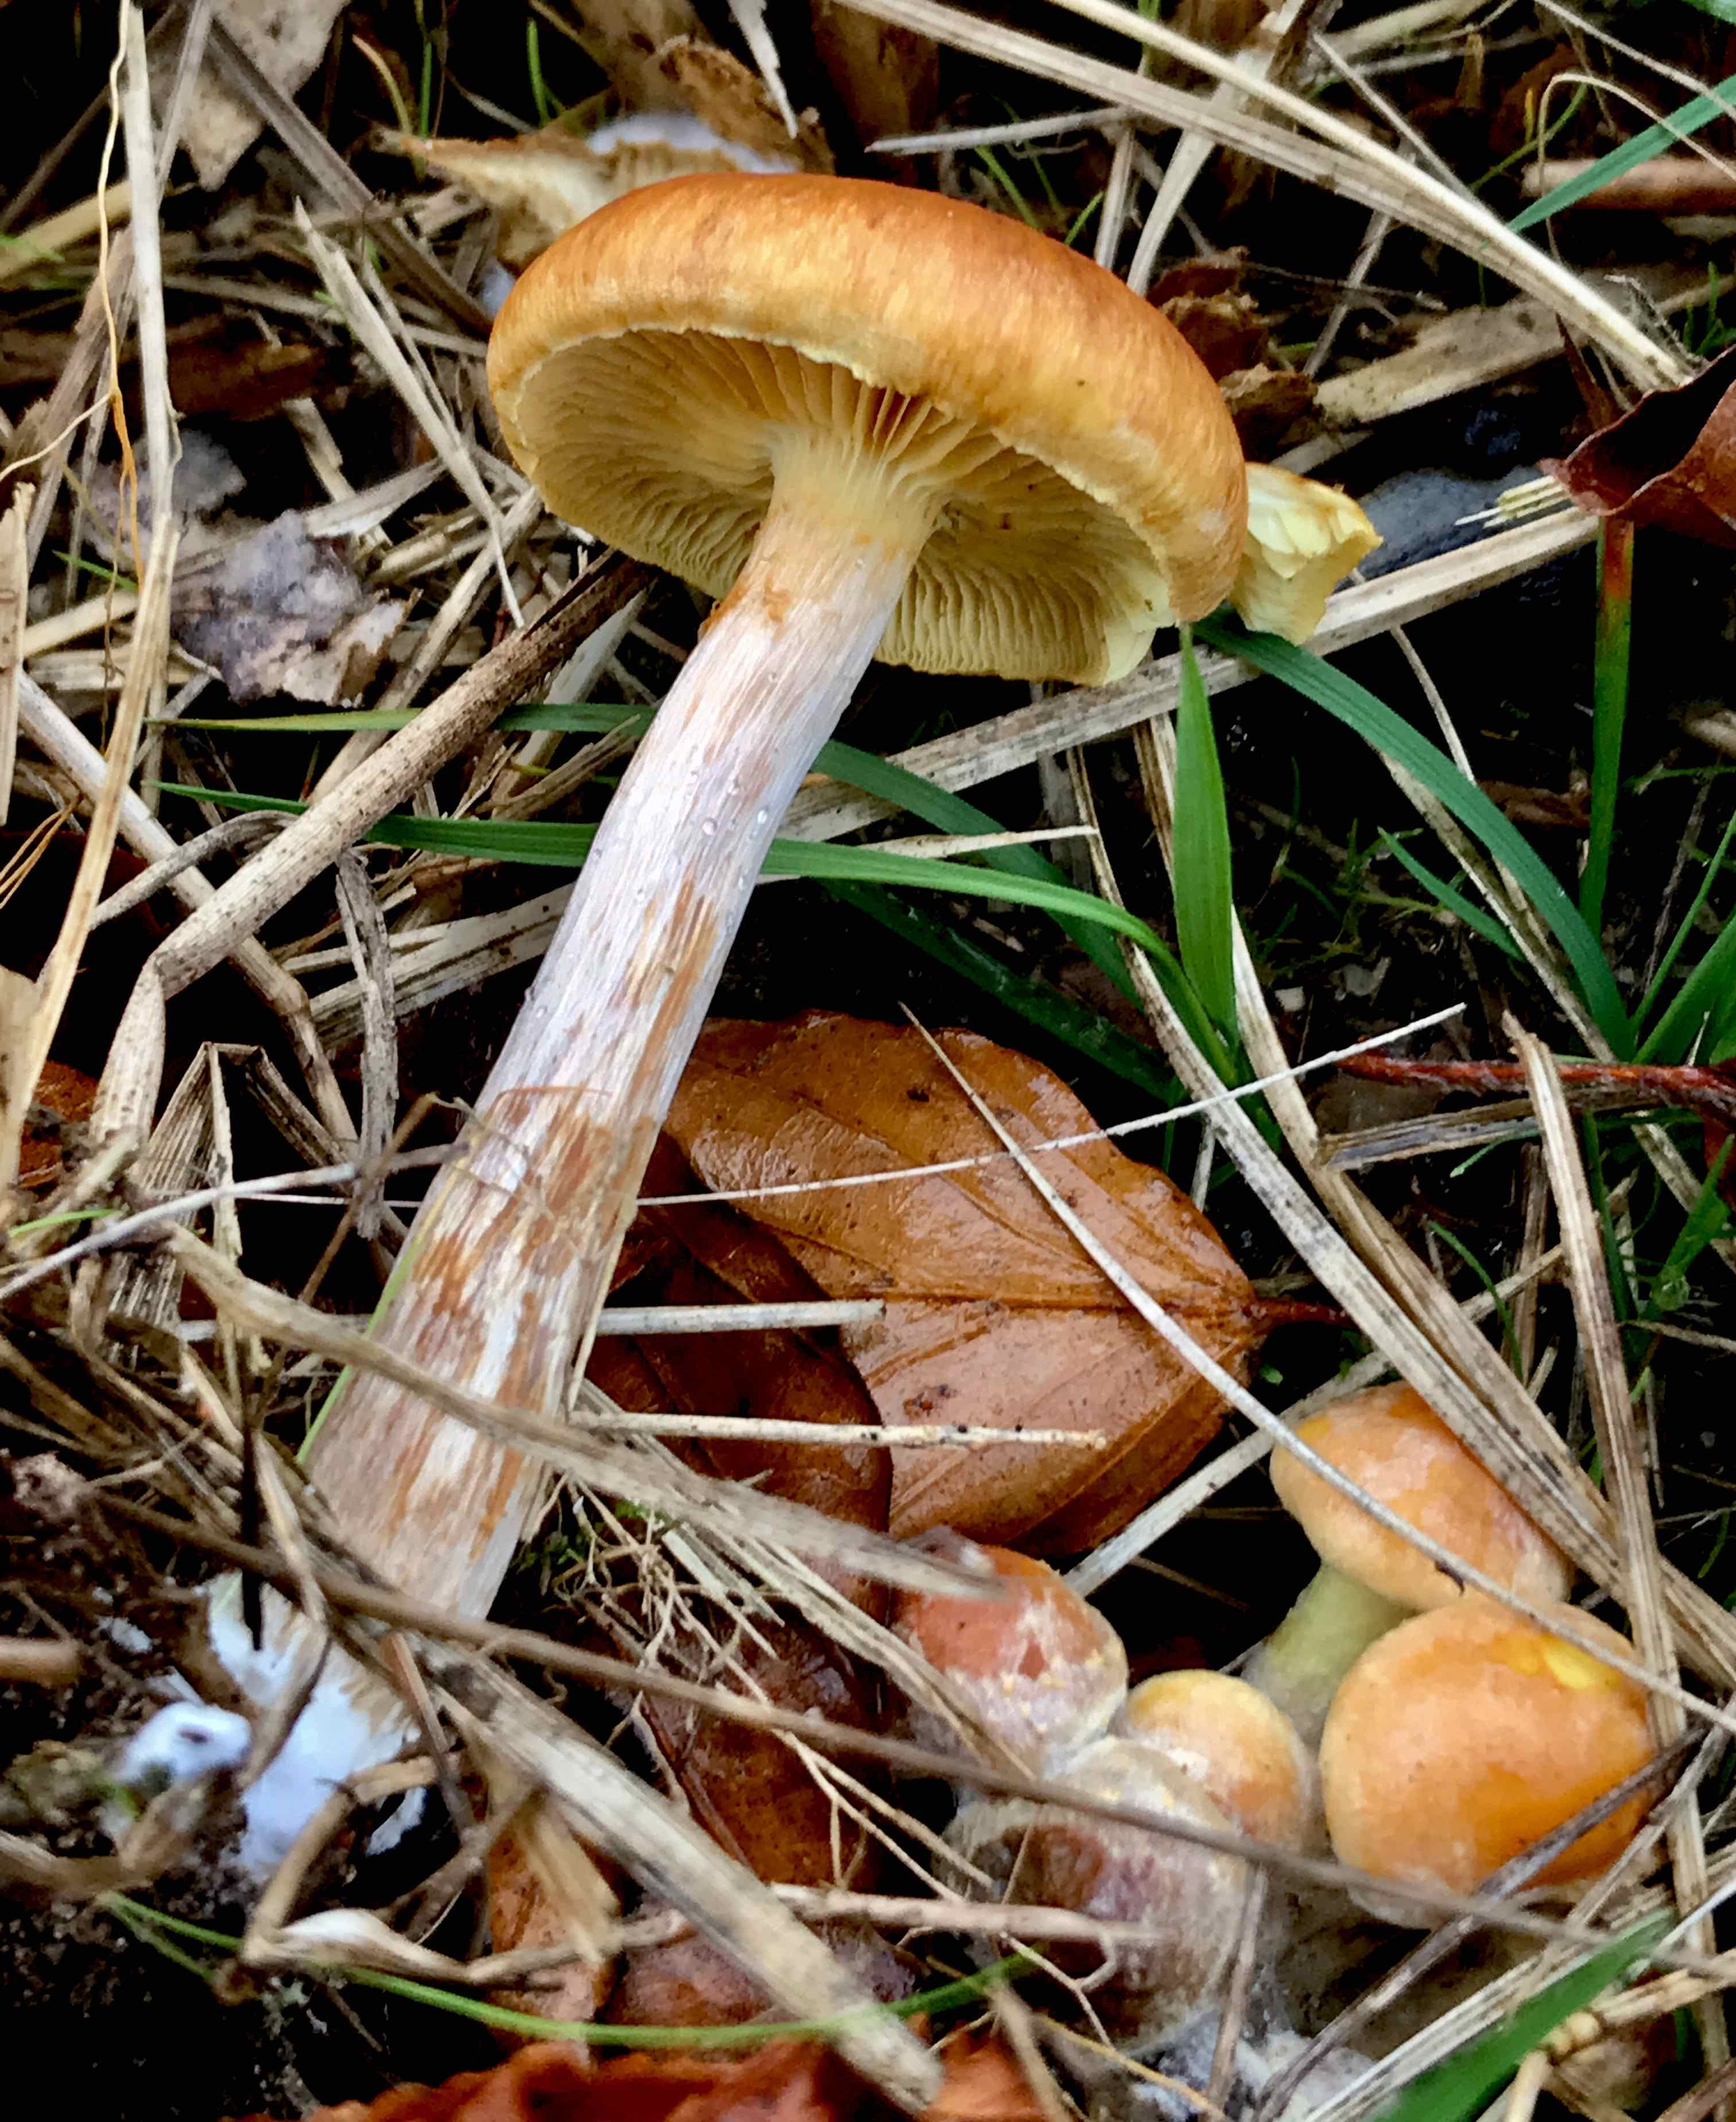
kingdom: Fungi
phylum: Basidiomycota
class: Agaricomycetes
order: Agaricales
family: Hymenogastraceae
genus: Gymnopilus
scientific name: Gymnopilus penetrans
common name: plettet flammehat
